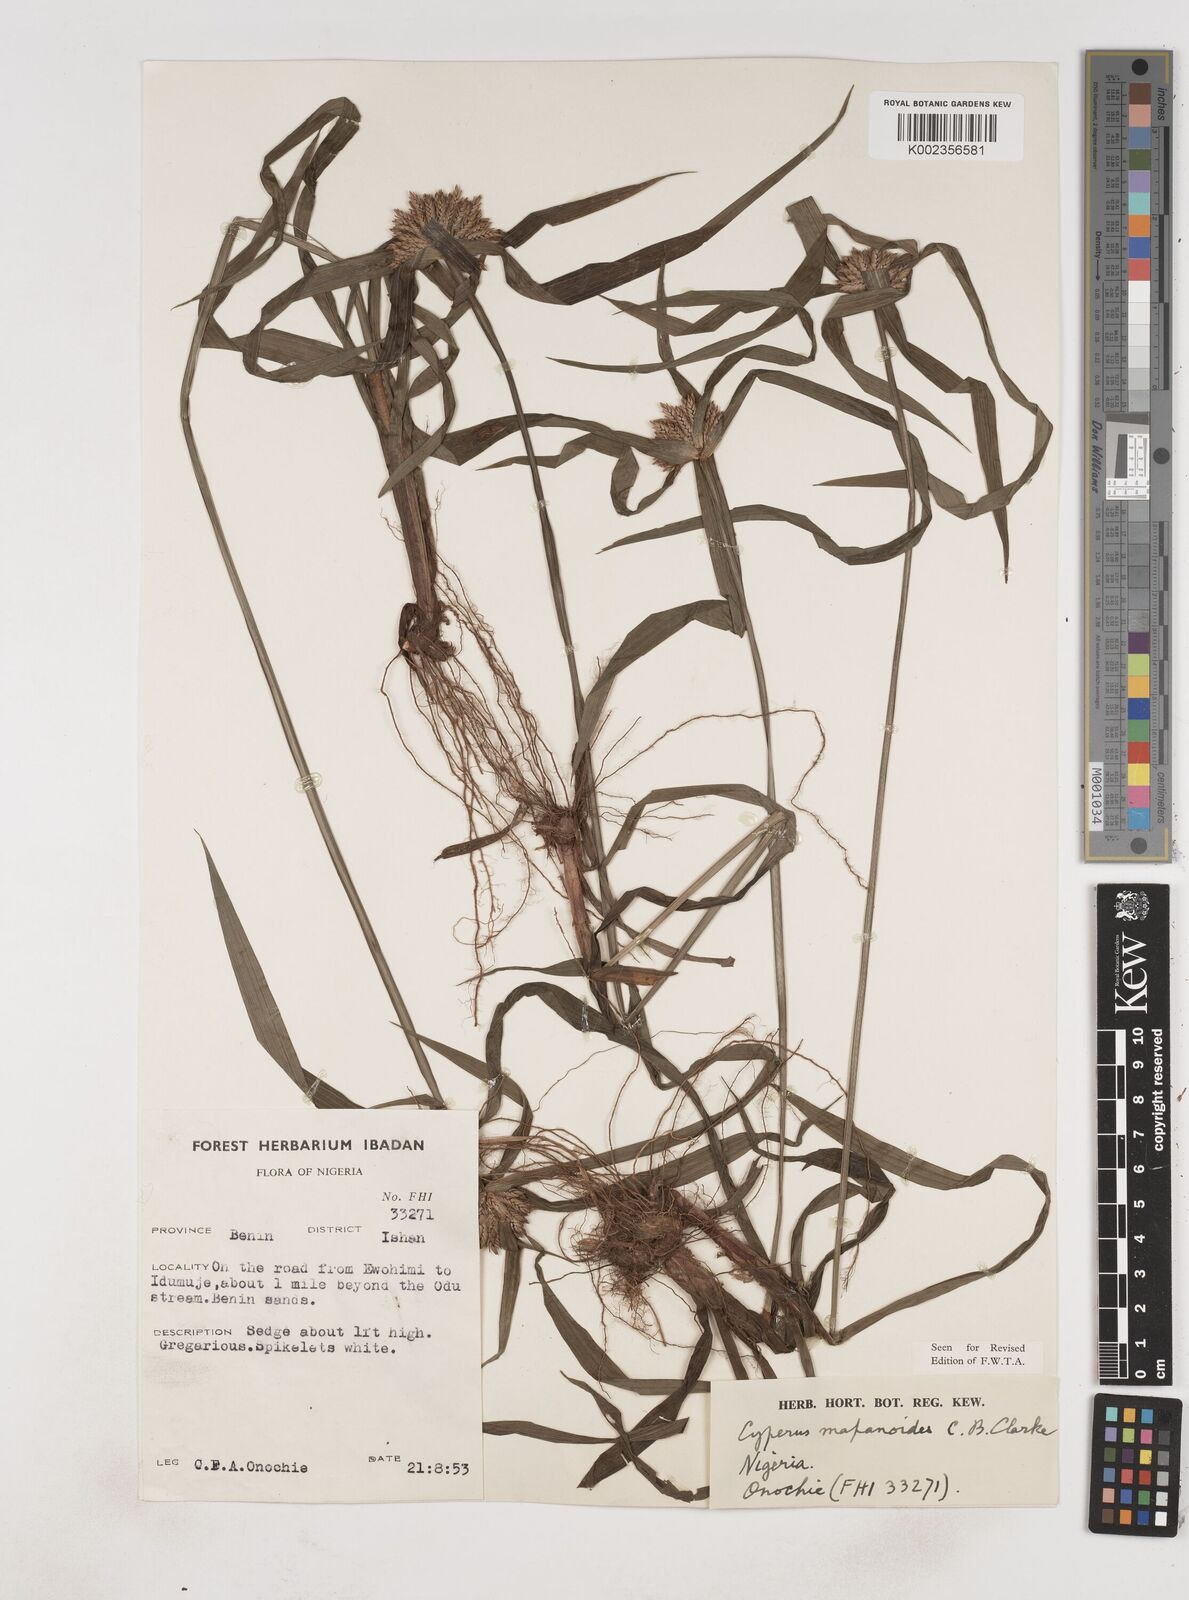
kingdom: Plantae
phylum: Tracheophyta
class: Liliopsida
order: Poales
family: Cyperaceae
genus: Cyperus
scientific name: Cyperus mapanioides
